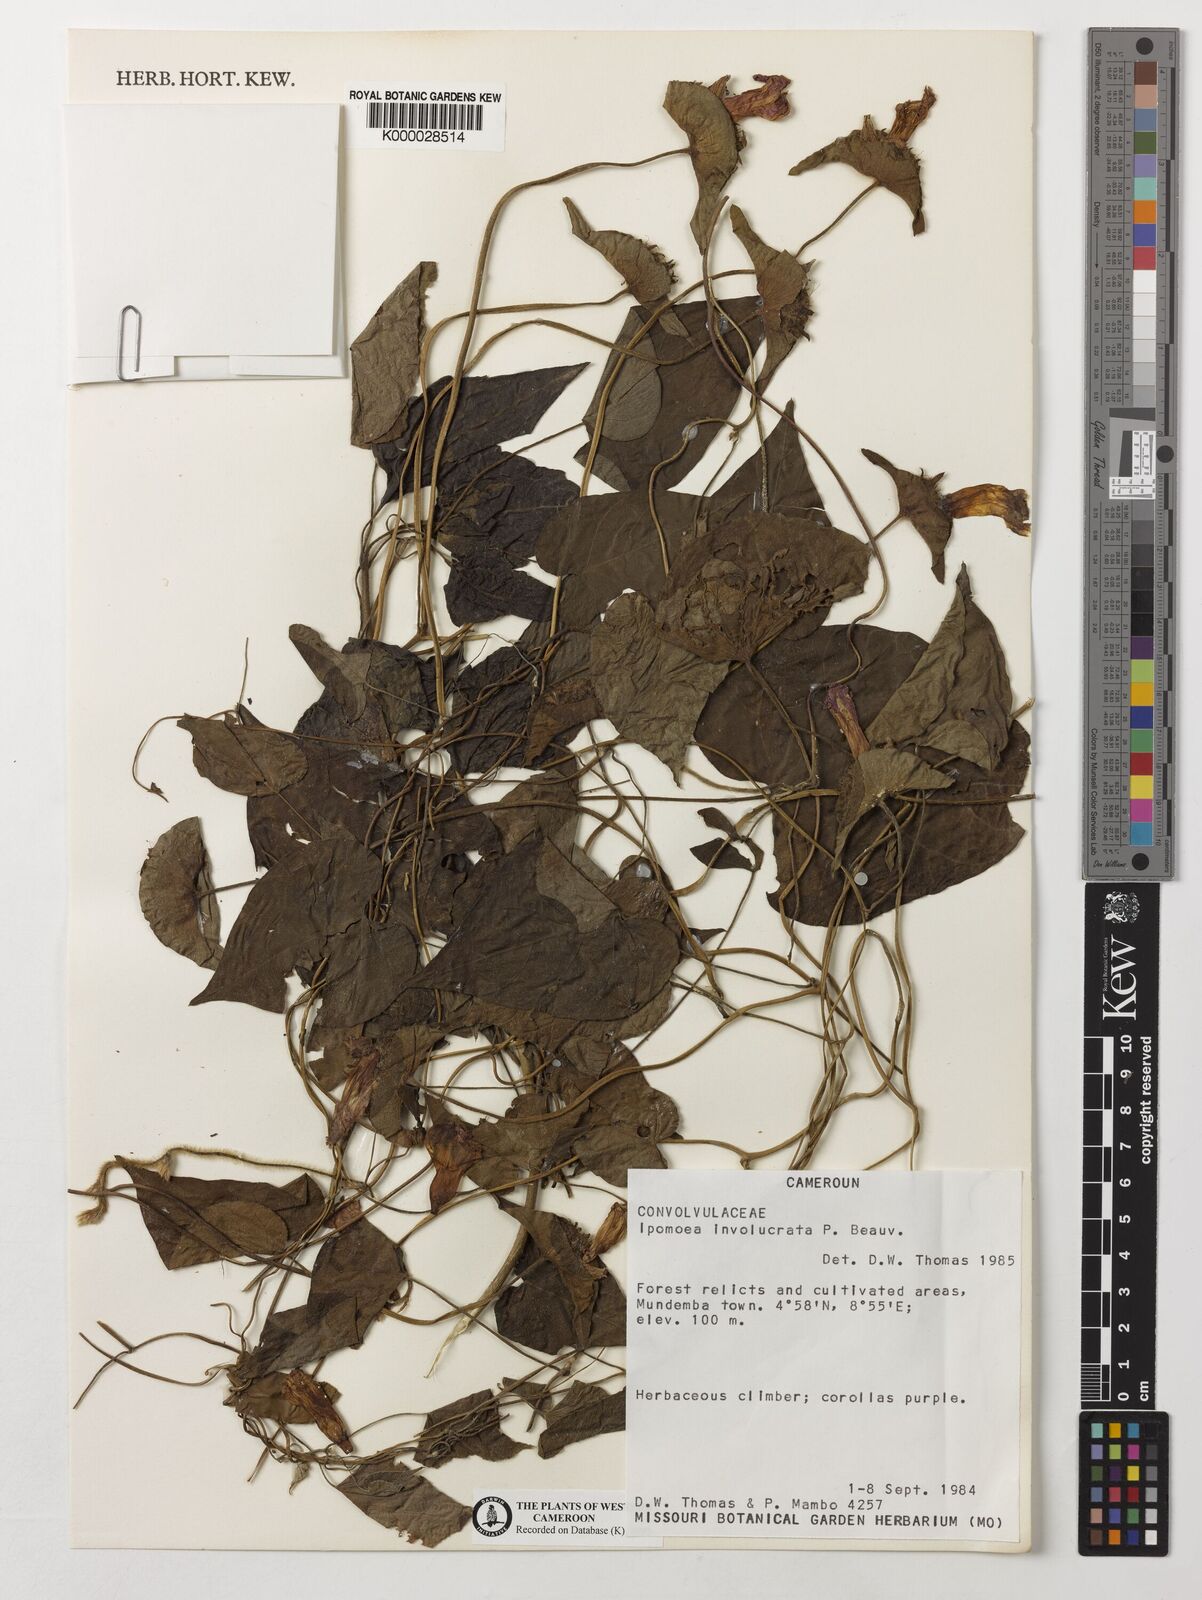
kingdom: Plantae
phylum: Tracheophyta
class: Magnoliopsida
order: Solanales
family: Convolvulaceae
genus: Ipomoea
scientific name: Ipomoea involucrata
